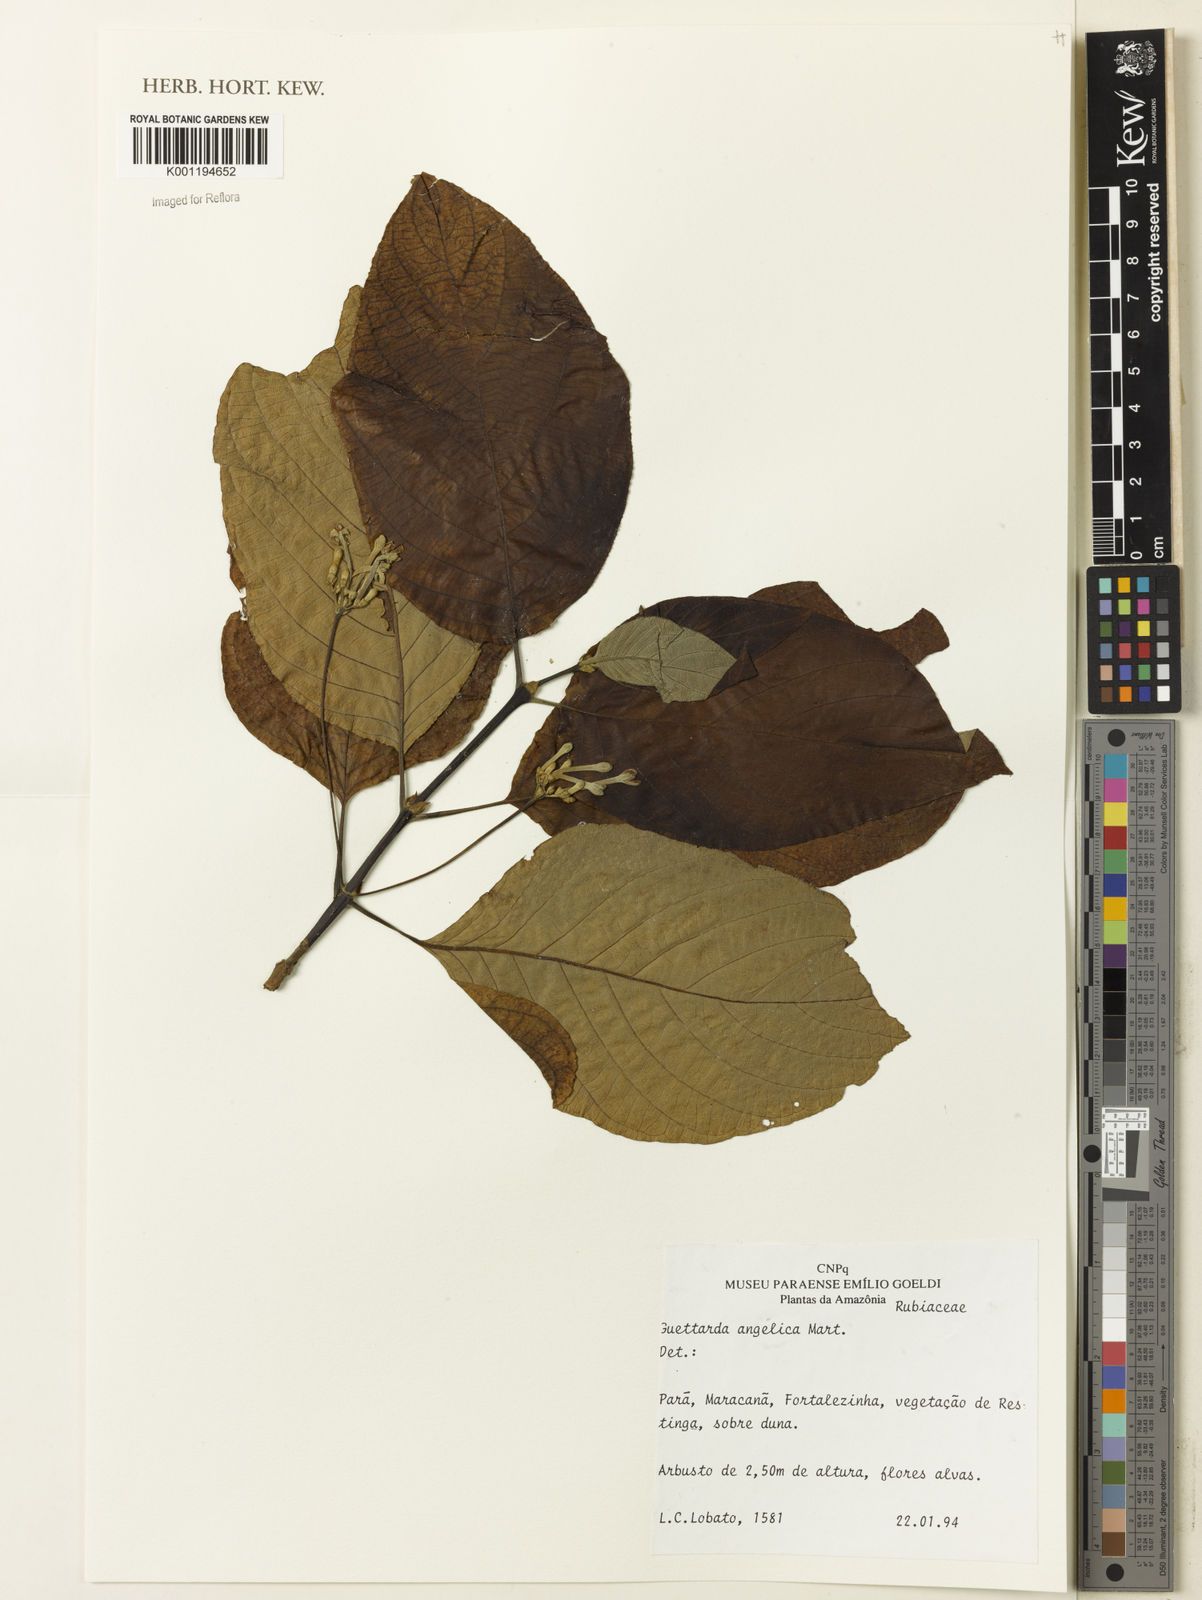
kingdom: Plantae
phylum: Tracheophyta
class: Magnoliopsida
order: Gentianales
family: Rubiaceae
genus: Guettarda
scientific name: Guettarda
